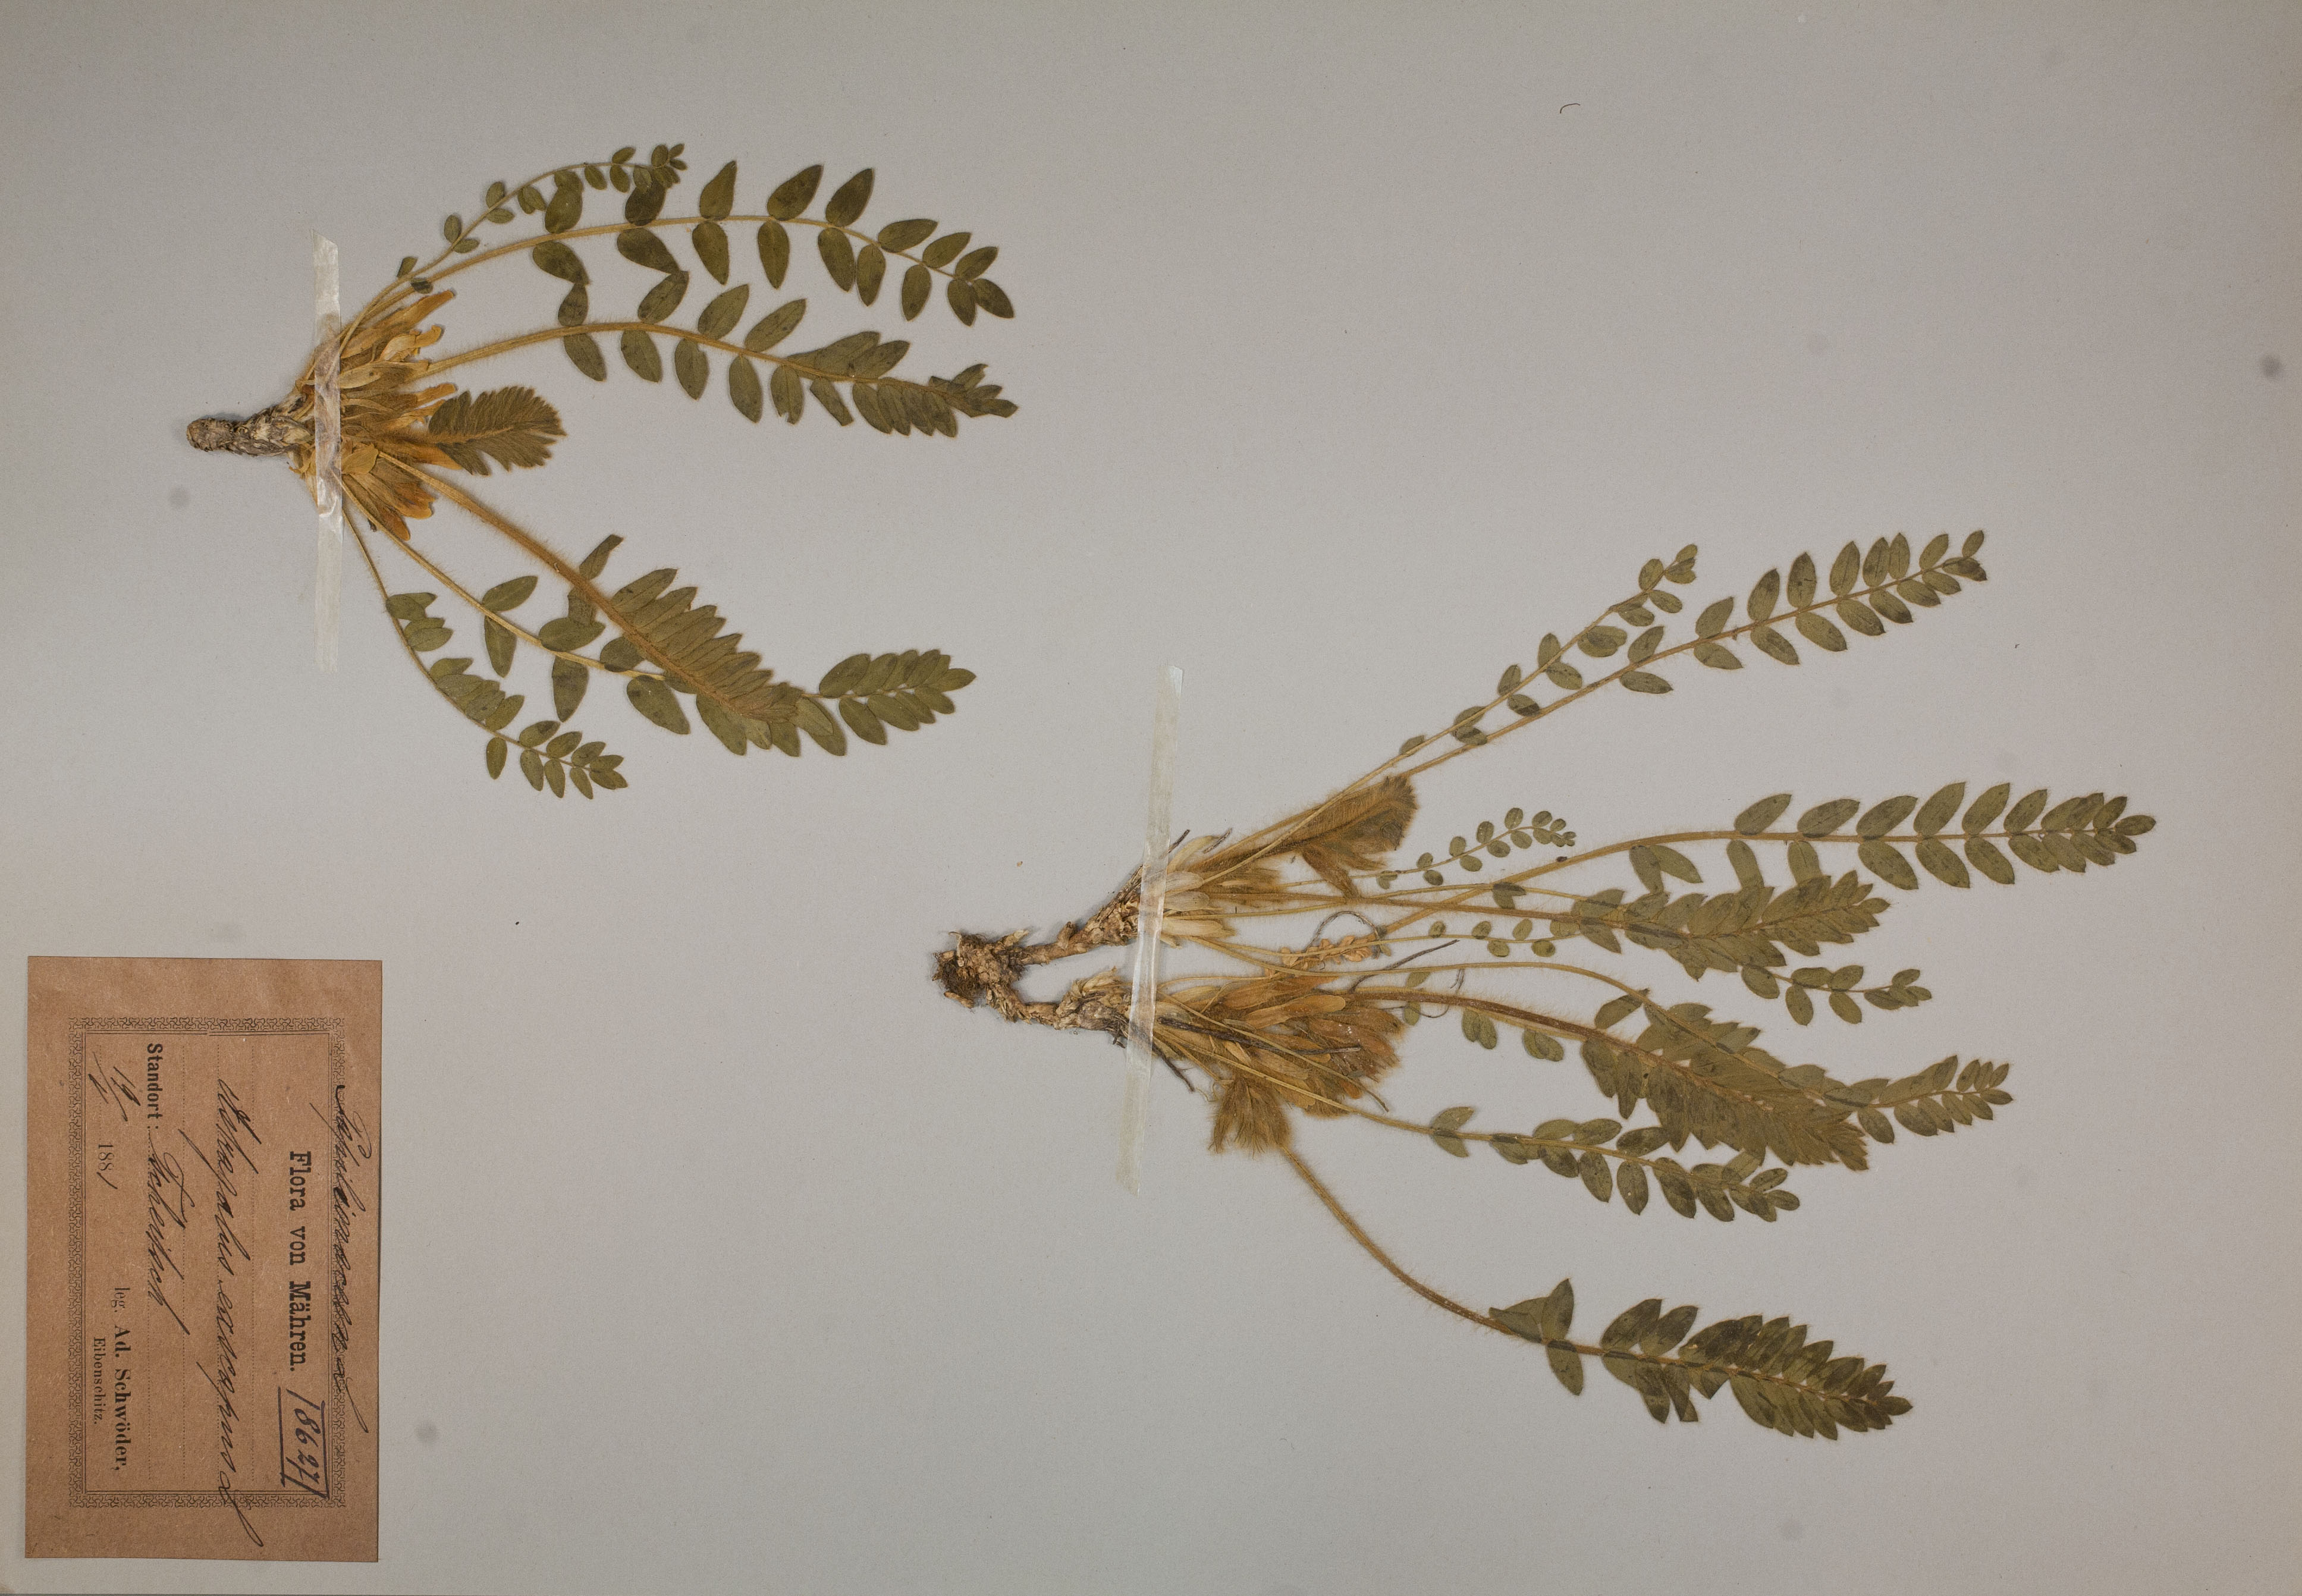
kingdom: Plantae
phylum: Tracheophyta
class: Magnoliopsida
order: Fabales
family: Fabaceae
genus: Astragalus
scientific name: Astragalus exscapus
